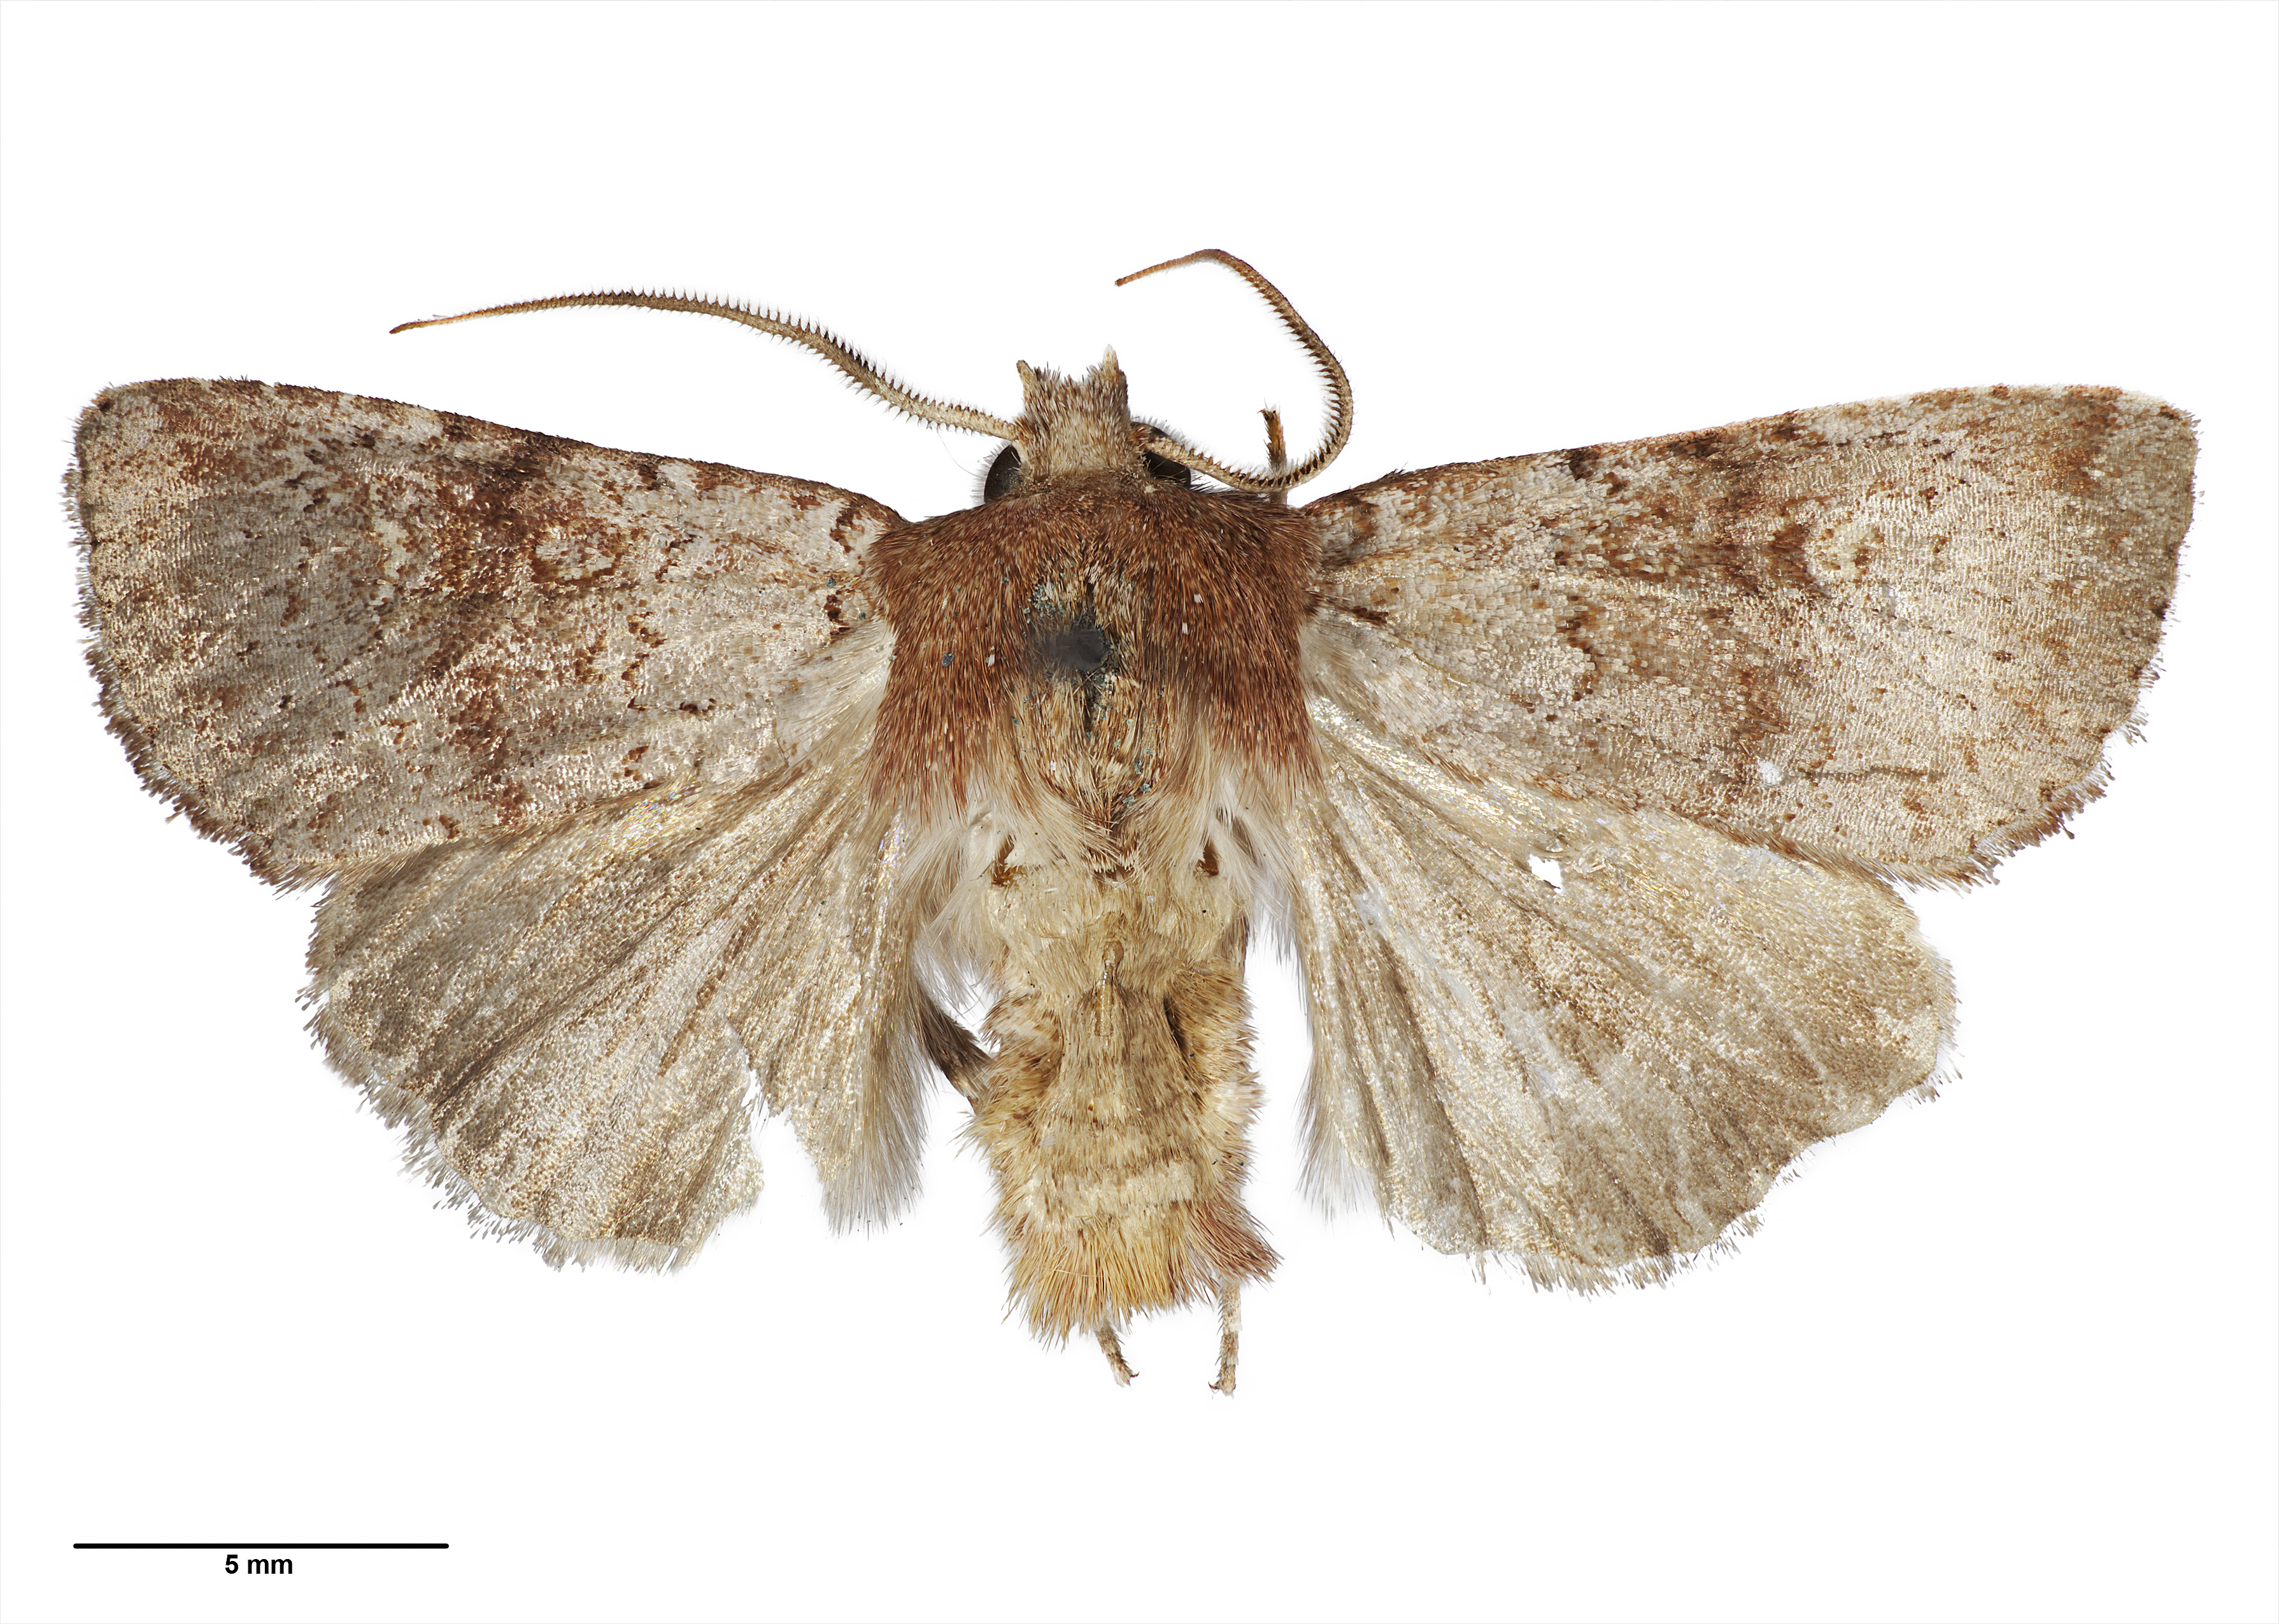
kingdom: Animalia
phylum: Arthropoda
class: Insecta
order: Lepidoptera
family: Noctuidae
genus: Ichneutica
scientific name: Ichneutica
